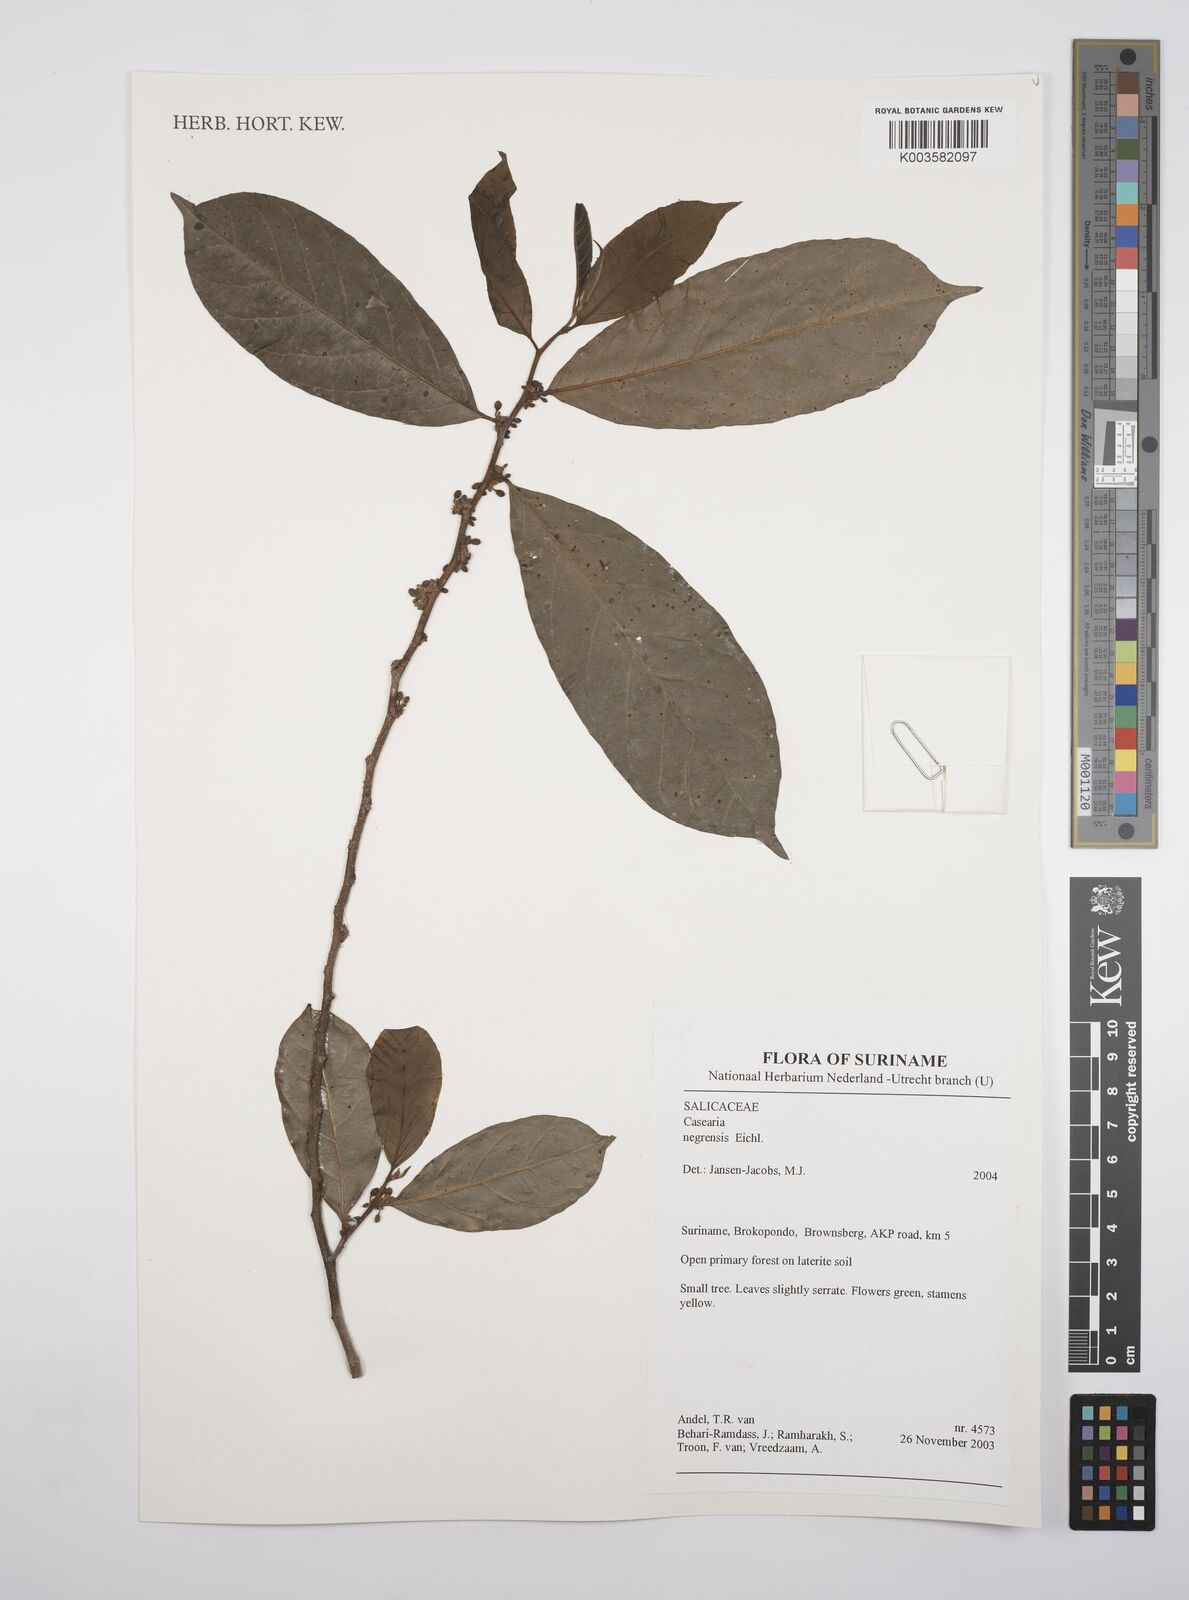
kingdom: Plantae
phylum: Tracheophyta
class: Magnoliopsida
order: Malpighiales
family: Salicaceae
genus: Casearia
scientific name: Casearia negrensis
